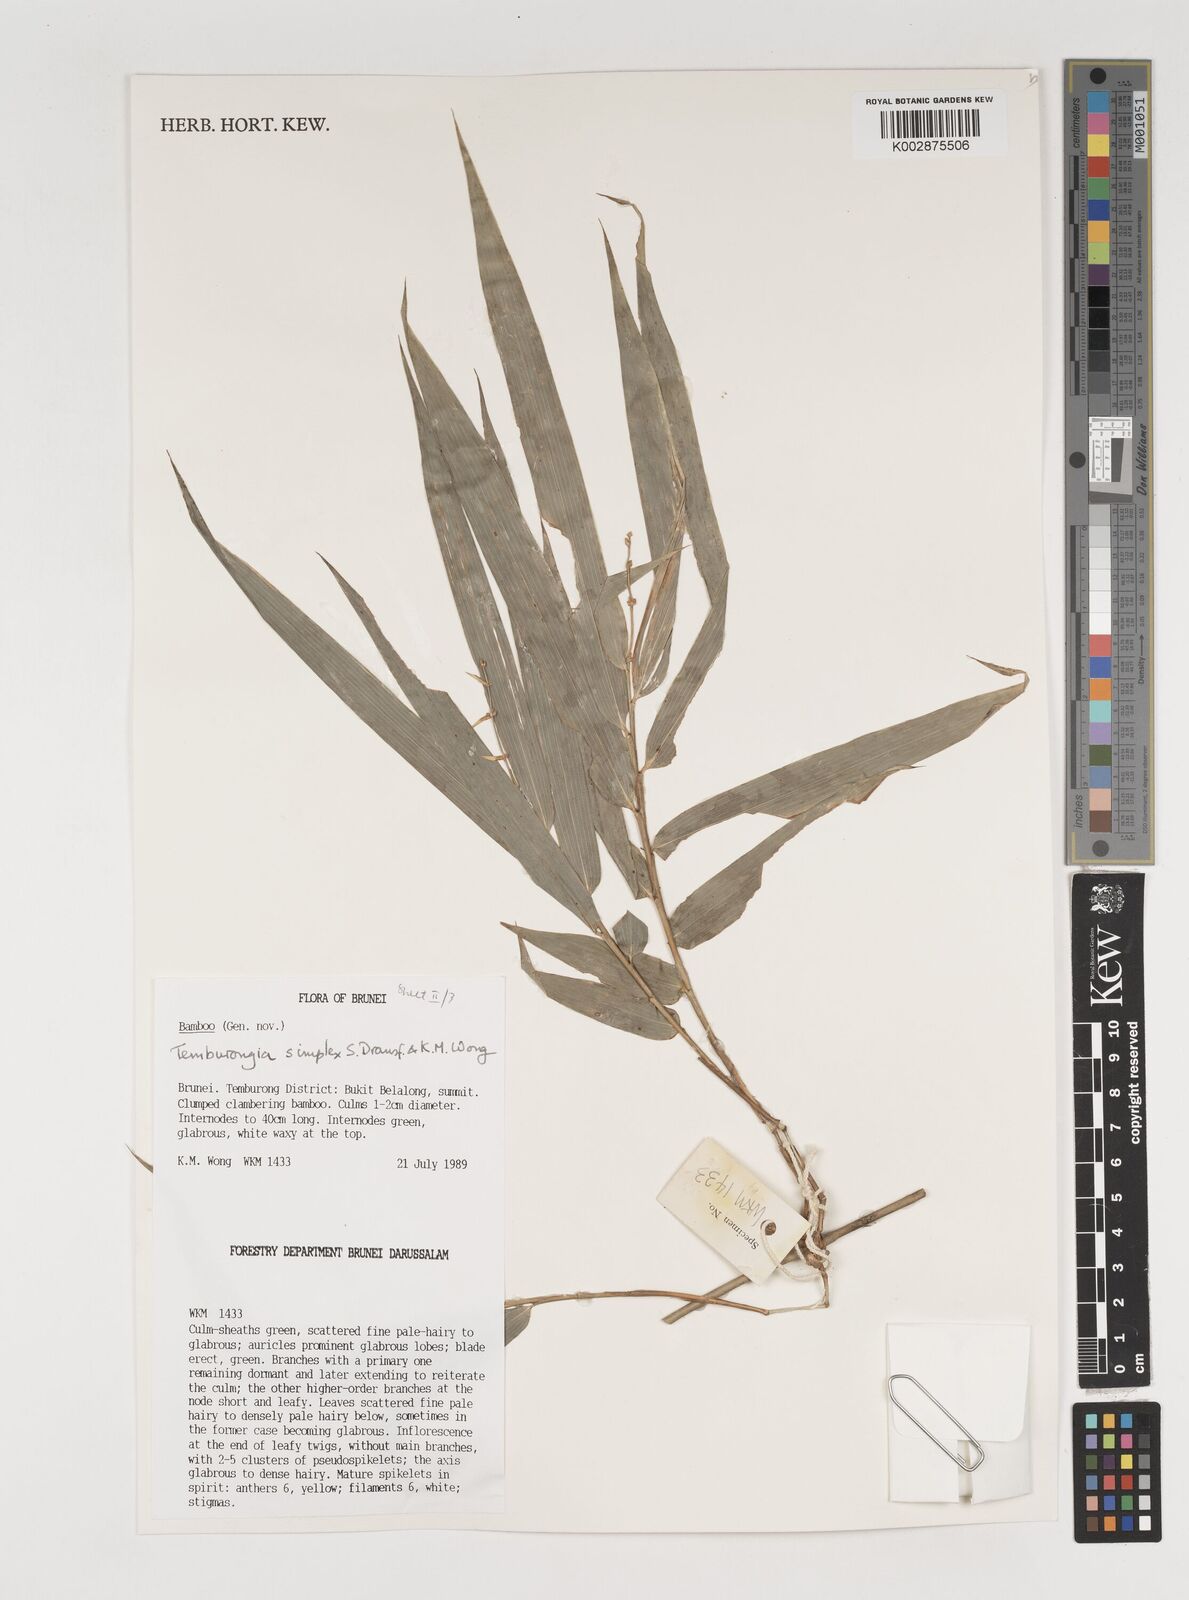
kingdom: Plantae
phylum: Tracheophyta
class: Liliopsida
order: Poales
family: Poaceae
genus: Temburongia
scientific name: Temburongia simplex
